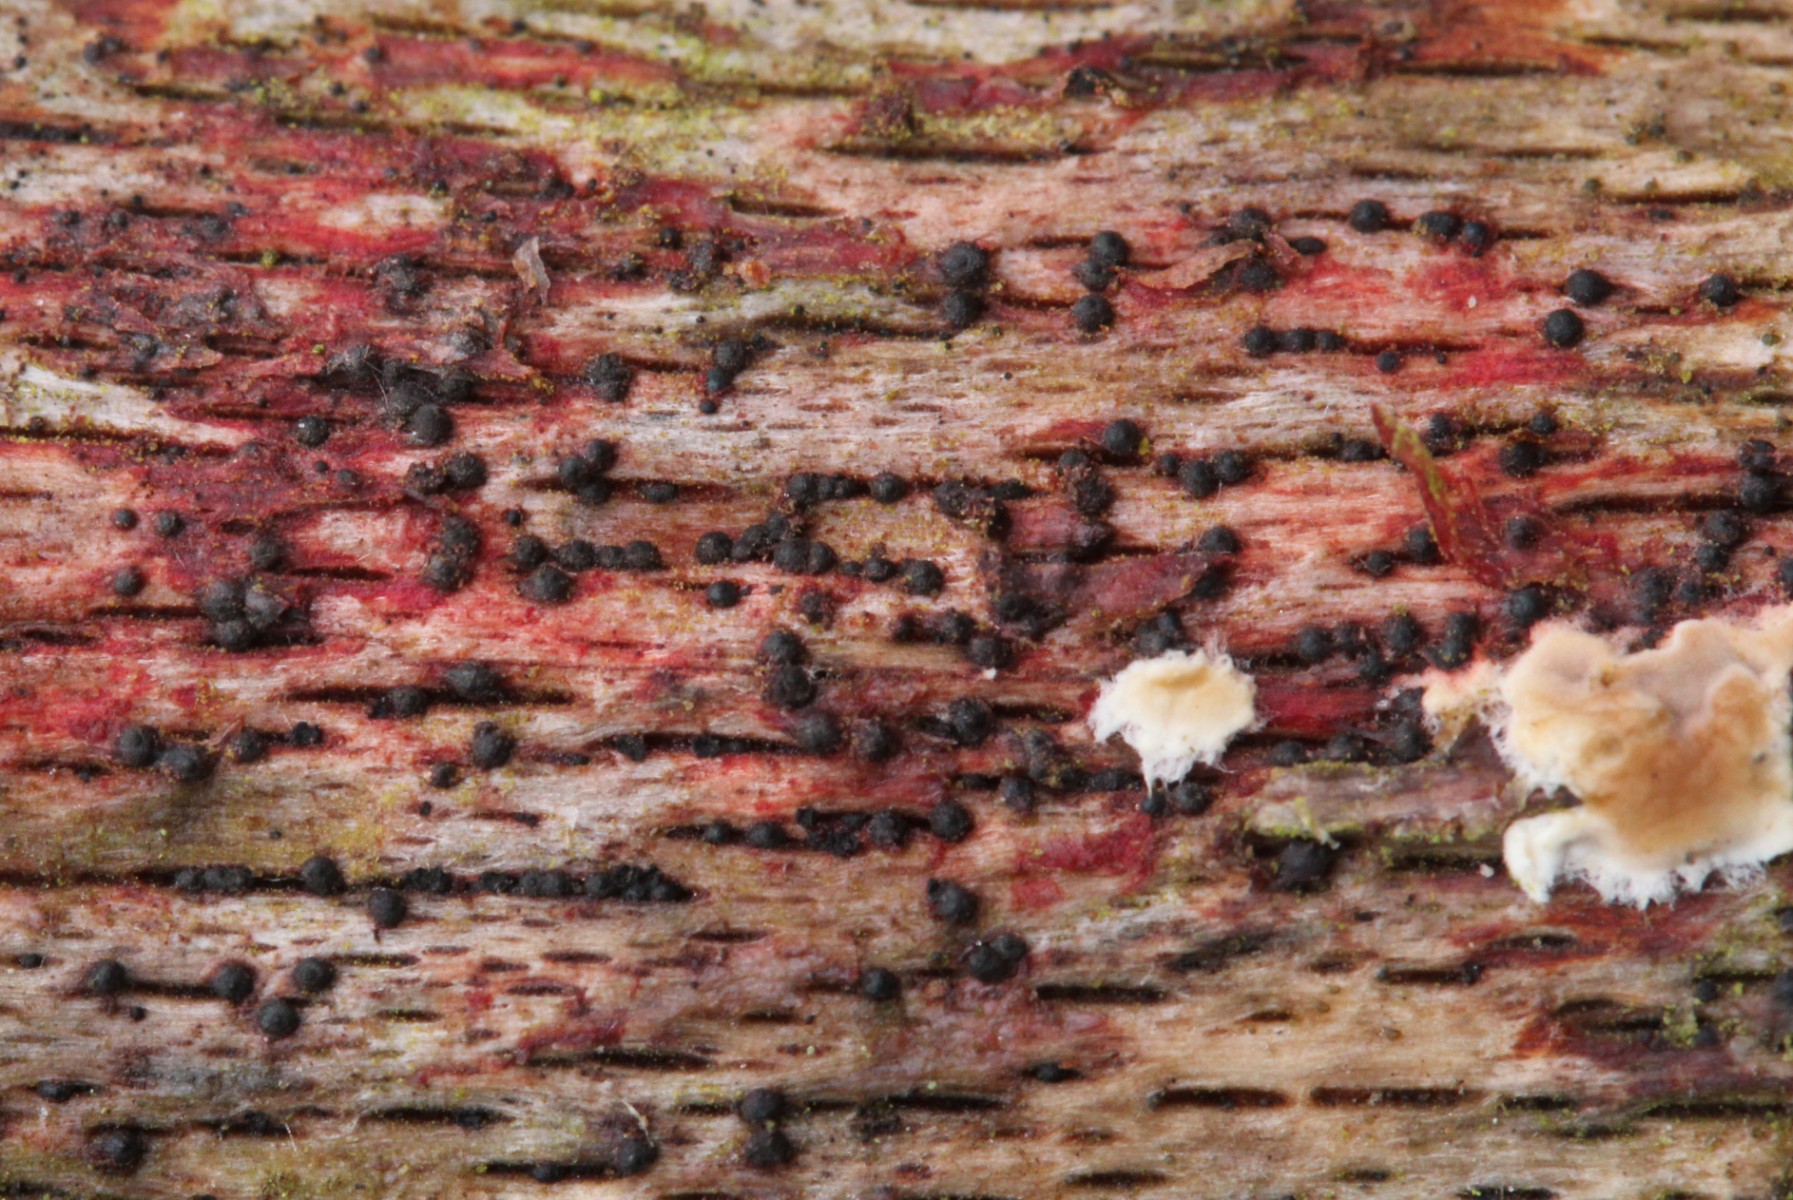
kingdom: Fungi
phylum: Ascomycota
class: Dothideomycetes
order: Pleosporales
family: Melanommataceae
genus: Melanomma
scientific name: Melanomma sanguinarium
